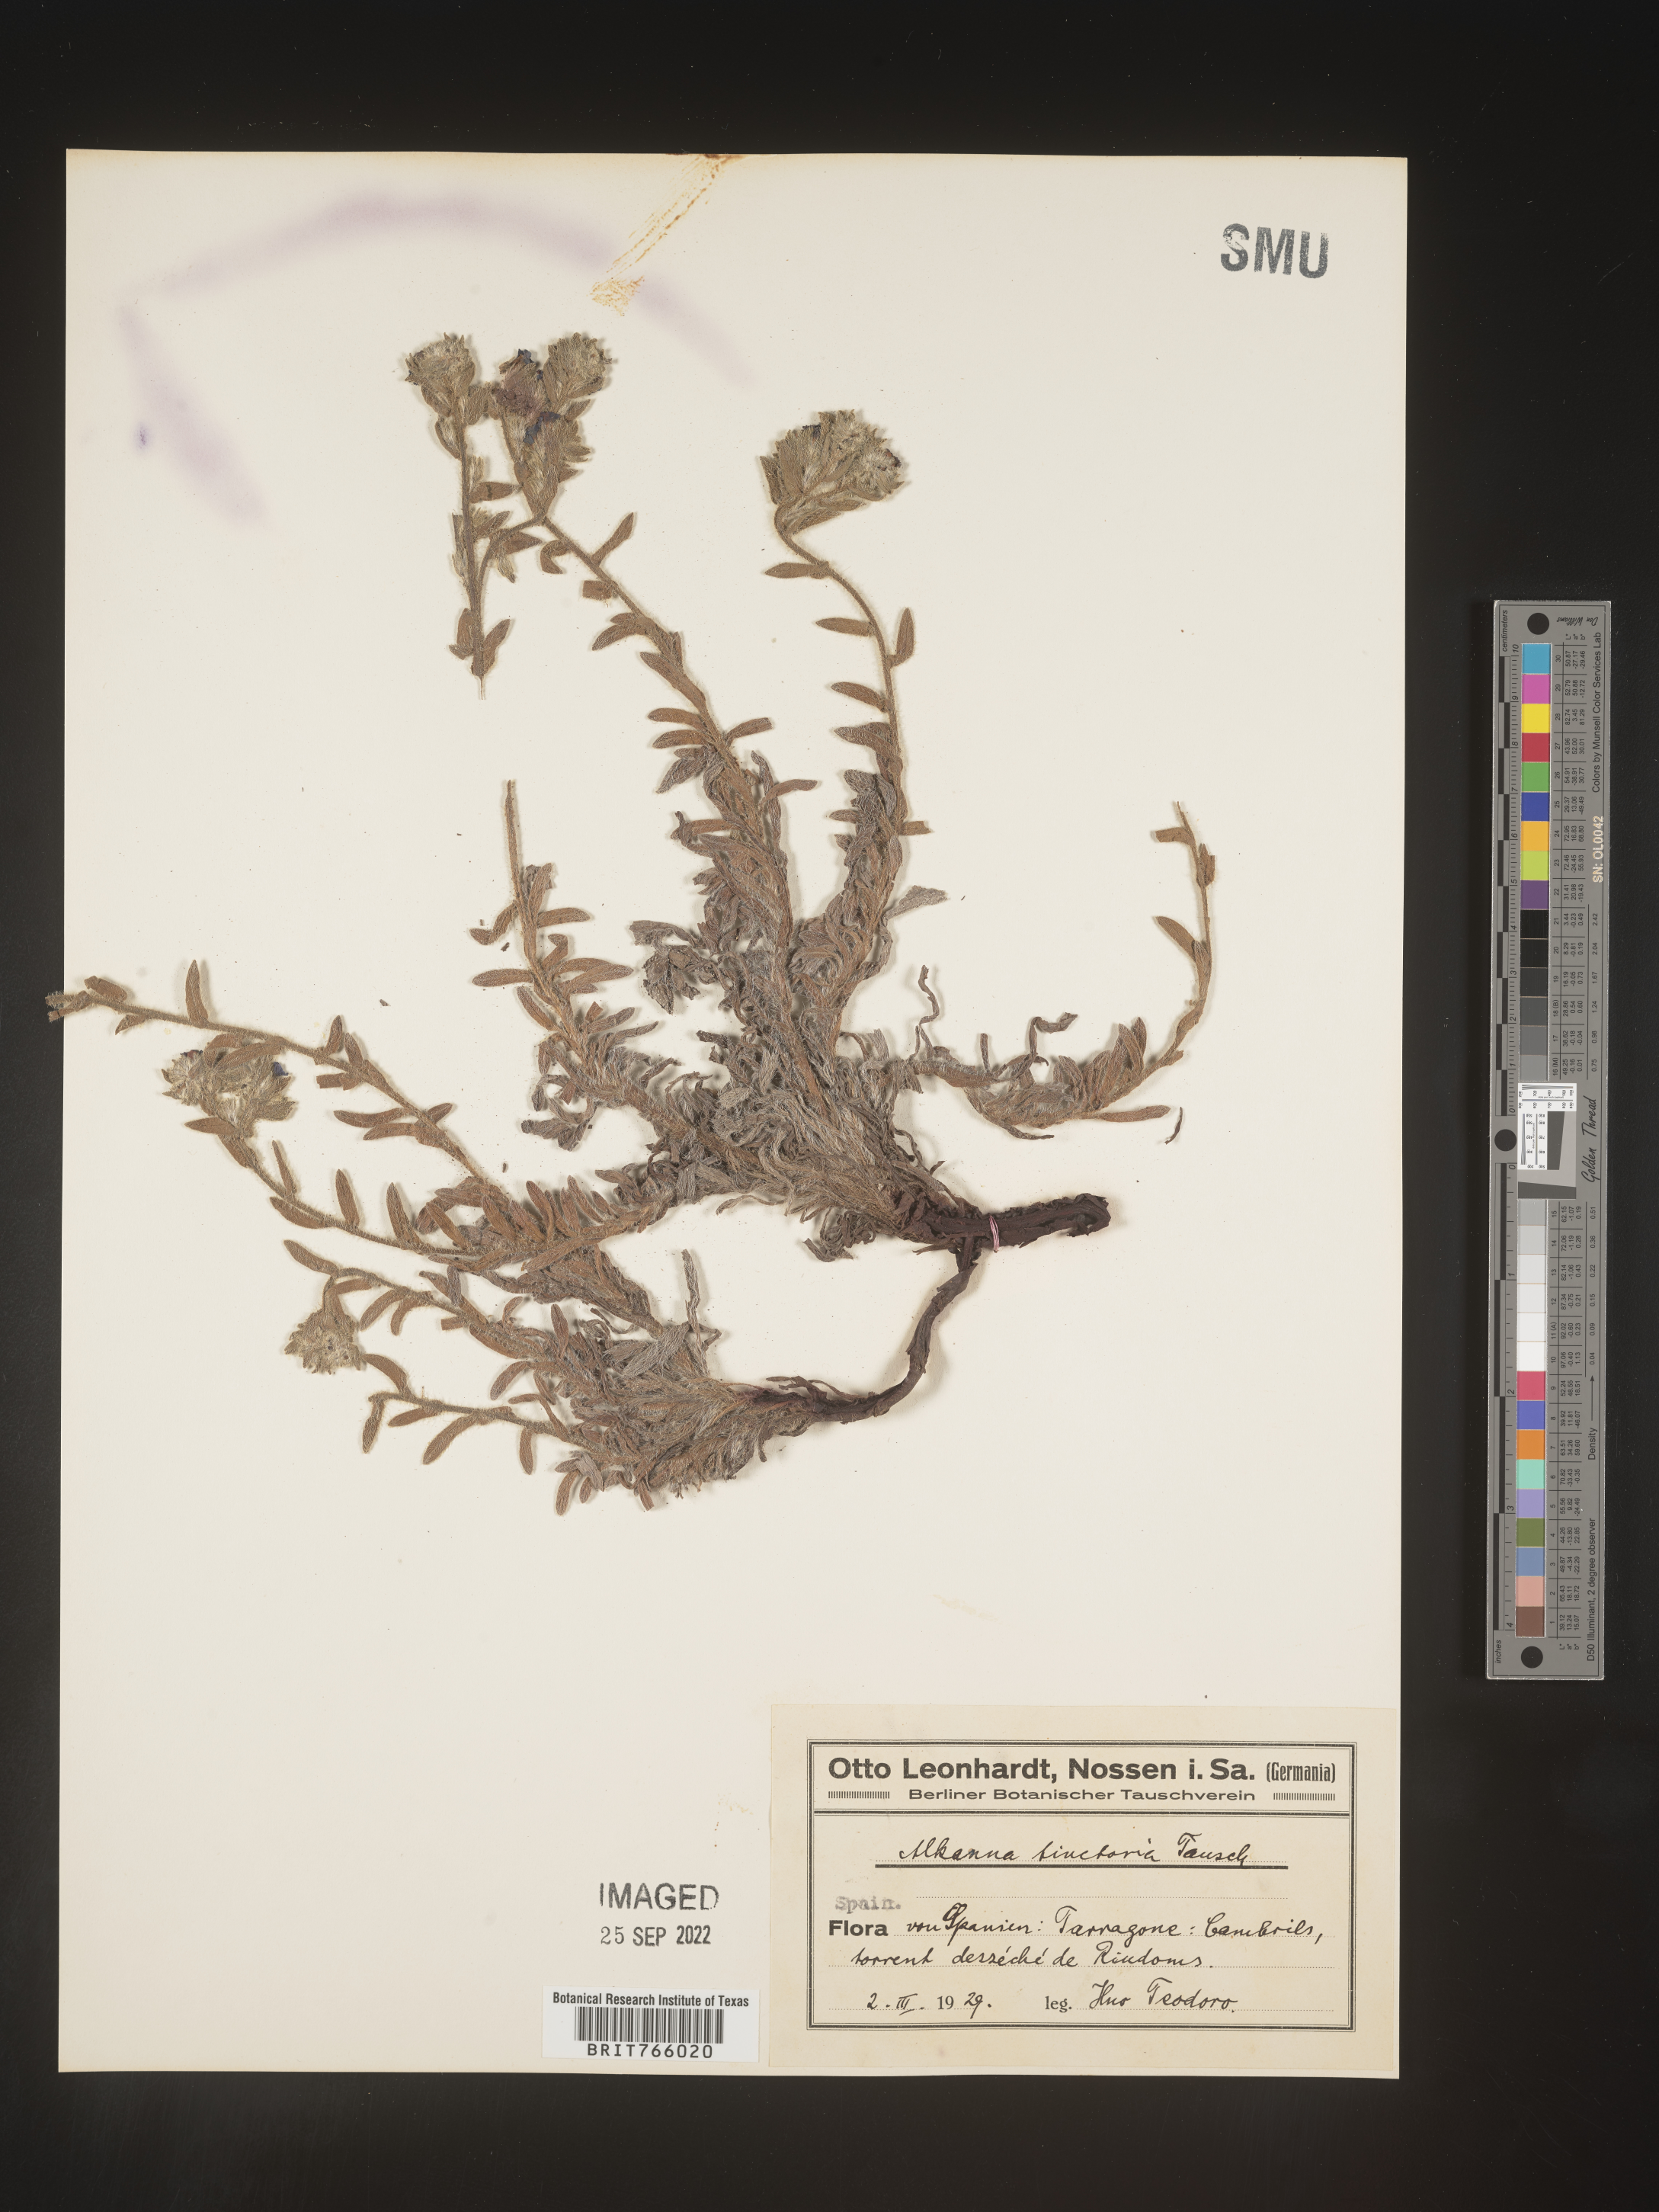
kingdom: Plantae
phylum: Tracheophyta
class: Magnoliopsida
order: Boraginales
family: Boraginaceae
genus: Alkanna
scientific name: Alkanna
